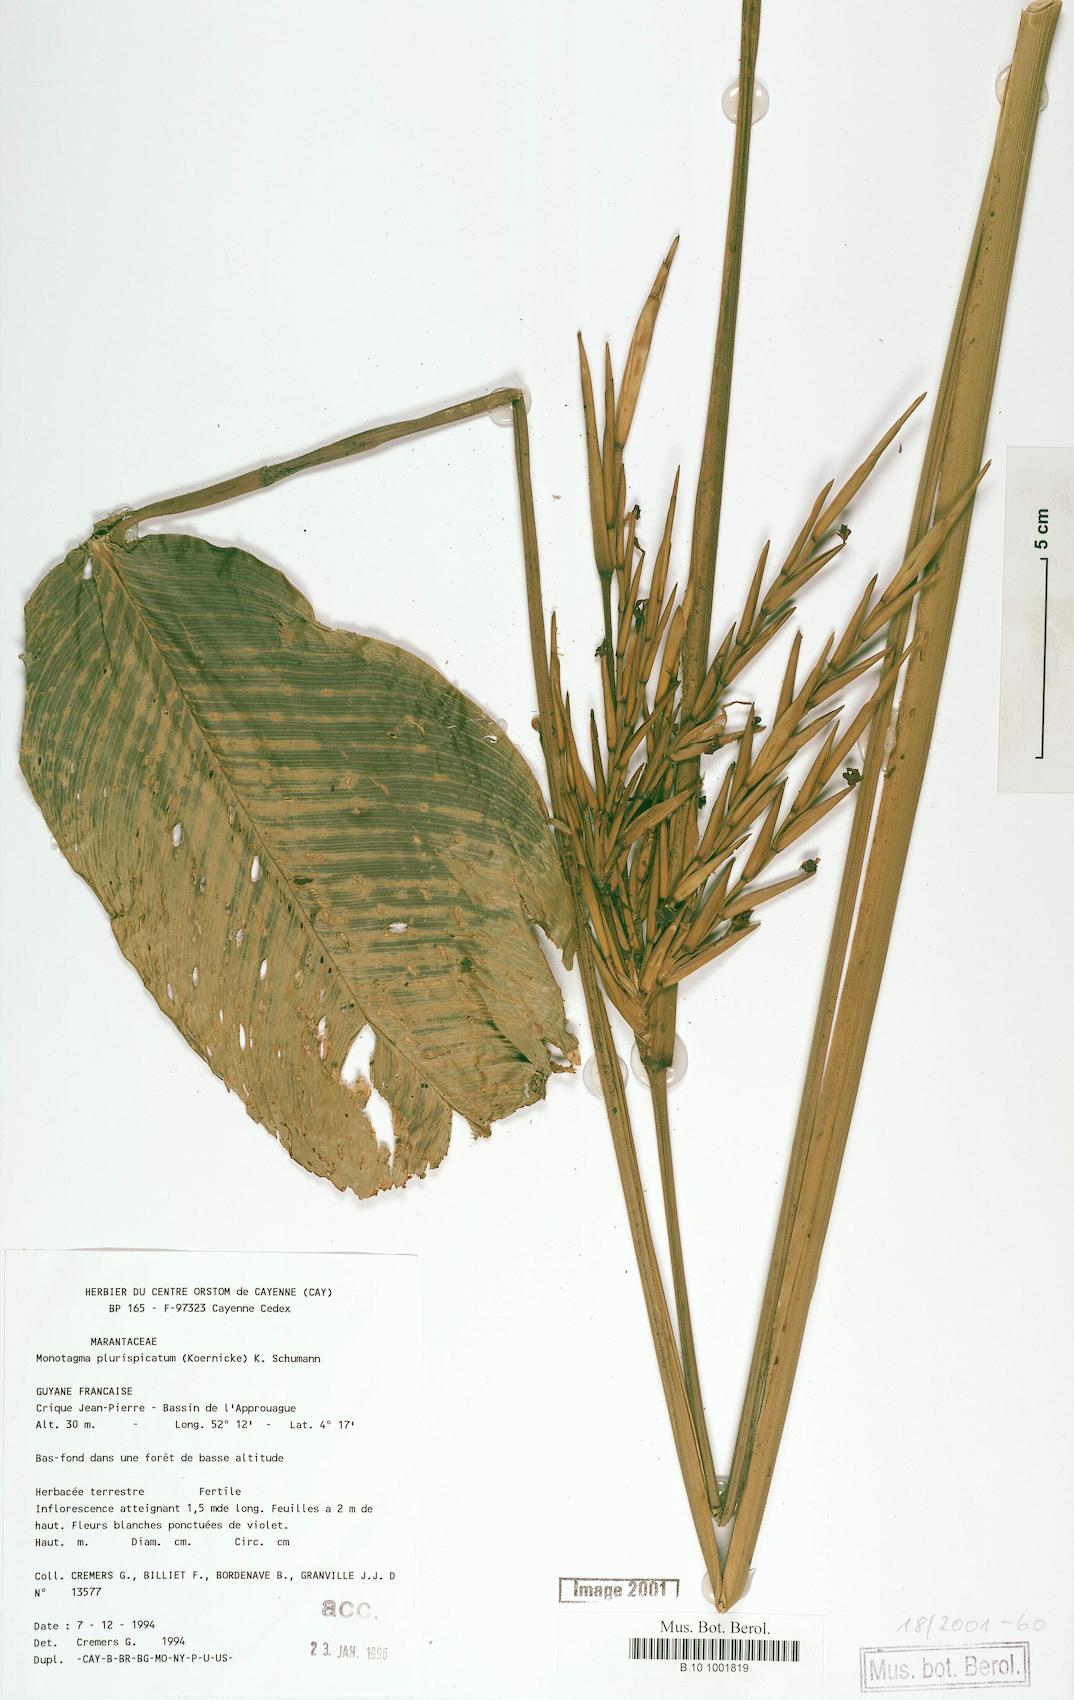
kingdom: Plantae
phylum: Tracheophyta
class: Liliopsida
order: Zingiberales
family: Marantaceae
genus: Monotagma
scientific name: Monotagma plurispicatum
